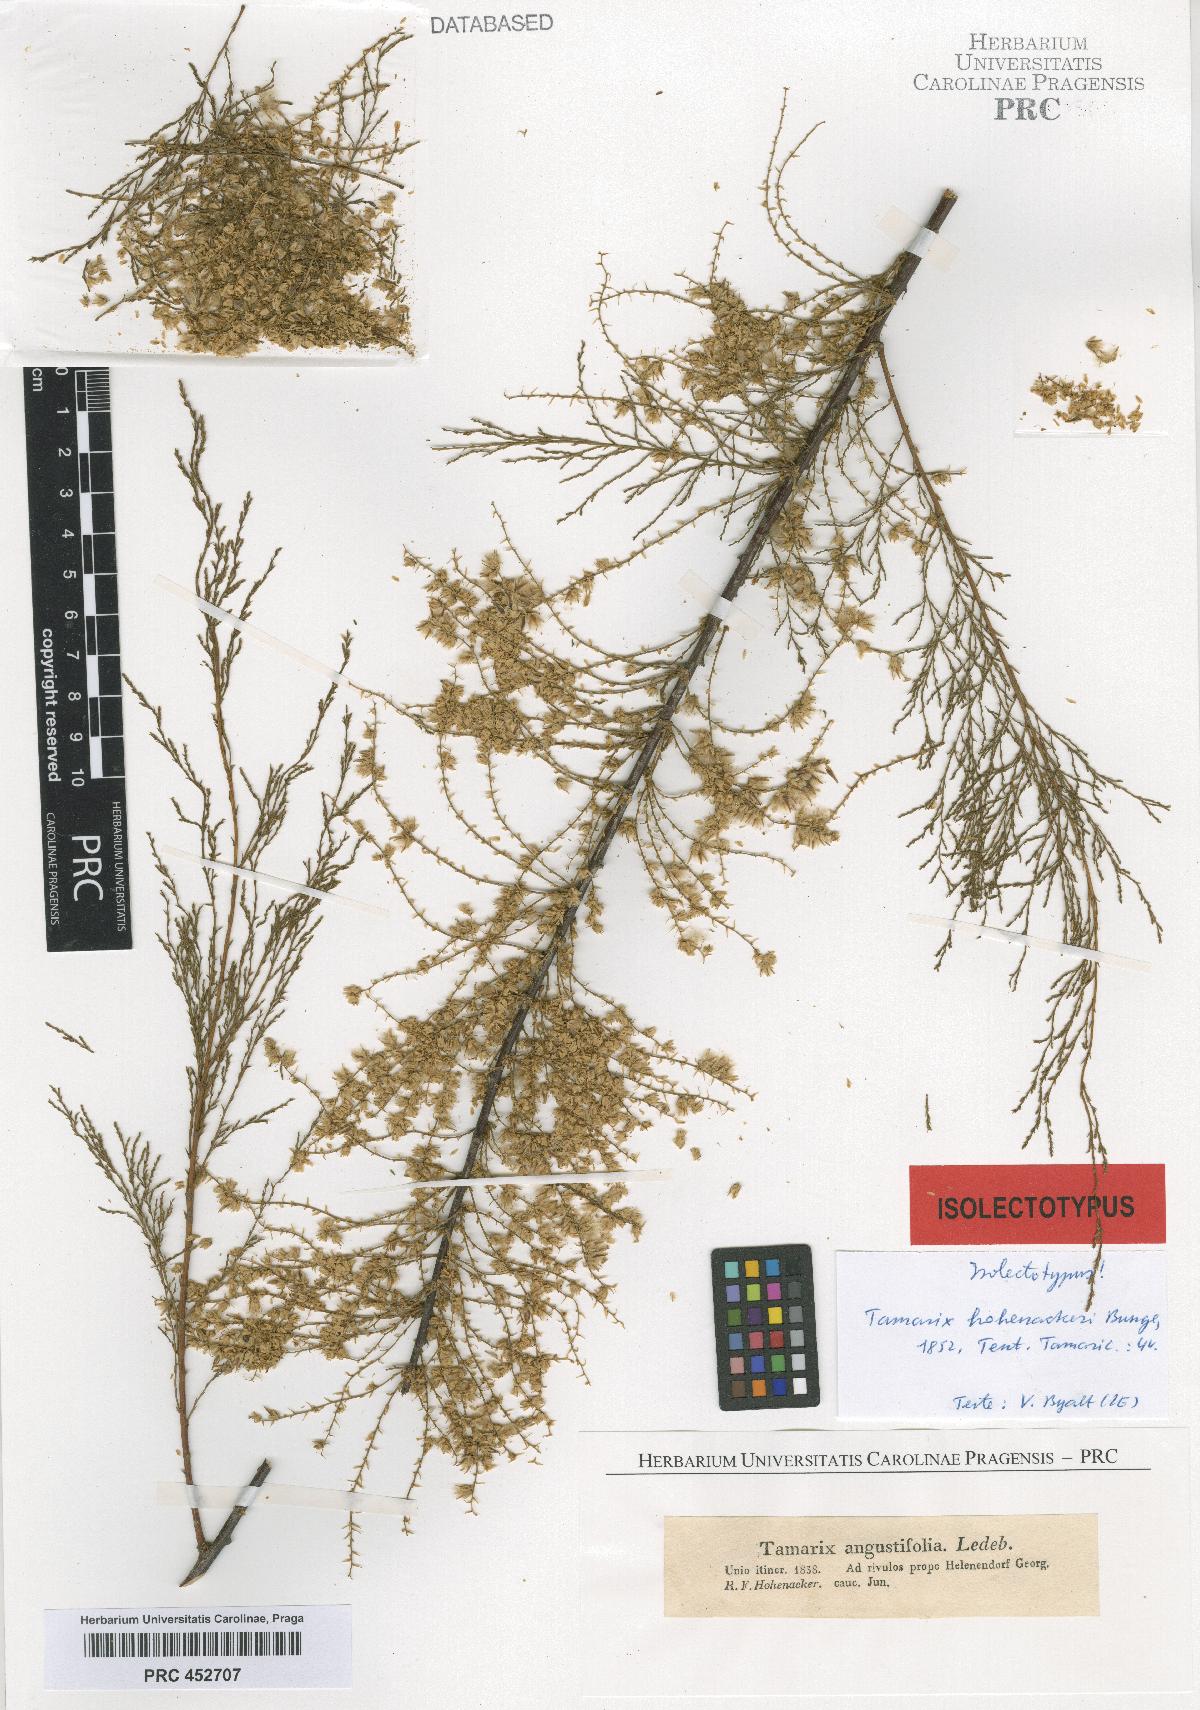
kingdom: Plantae
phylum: Tracheophyta
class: Magnoliopsida
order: Caryophyllales
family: Tamaricaceae
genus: Tamarix
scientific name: Tamarix hohenackeri
